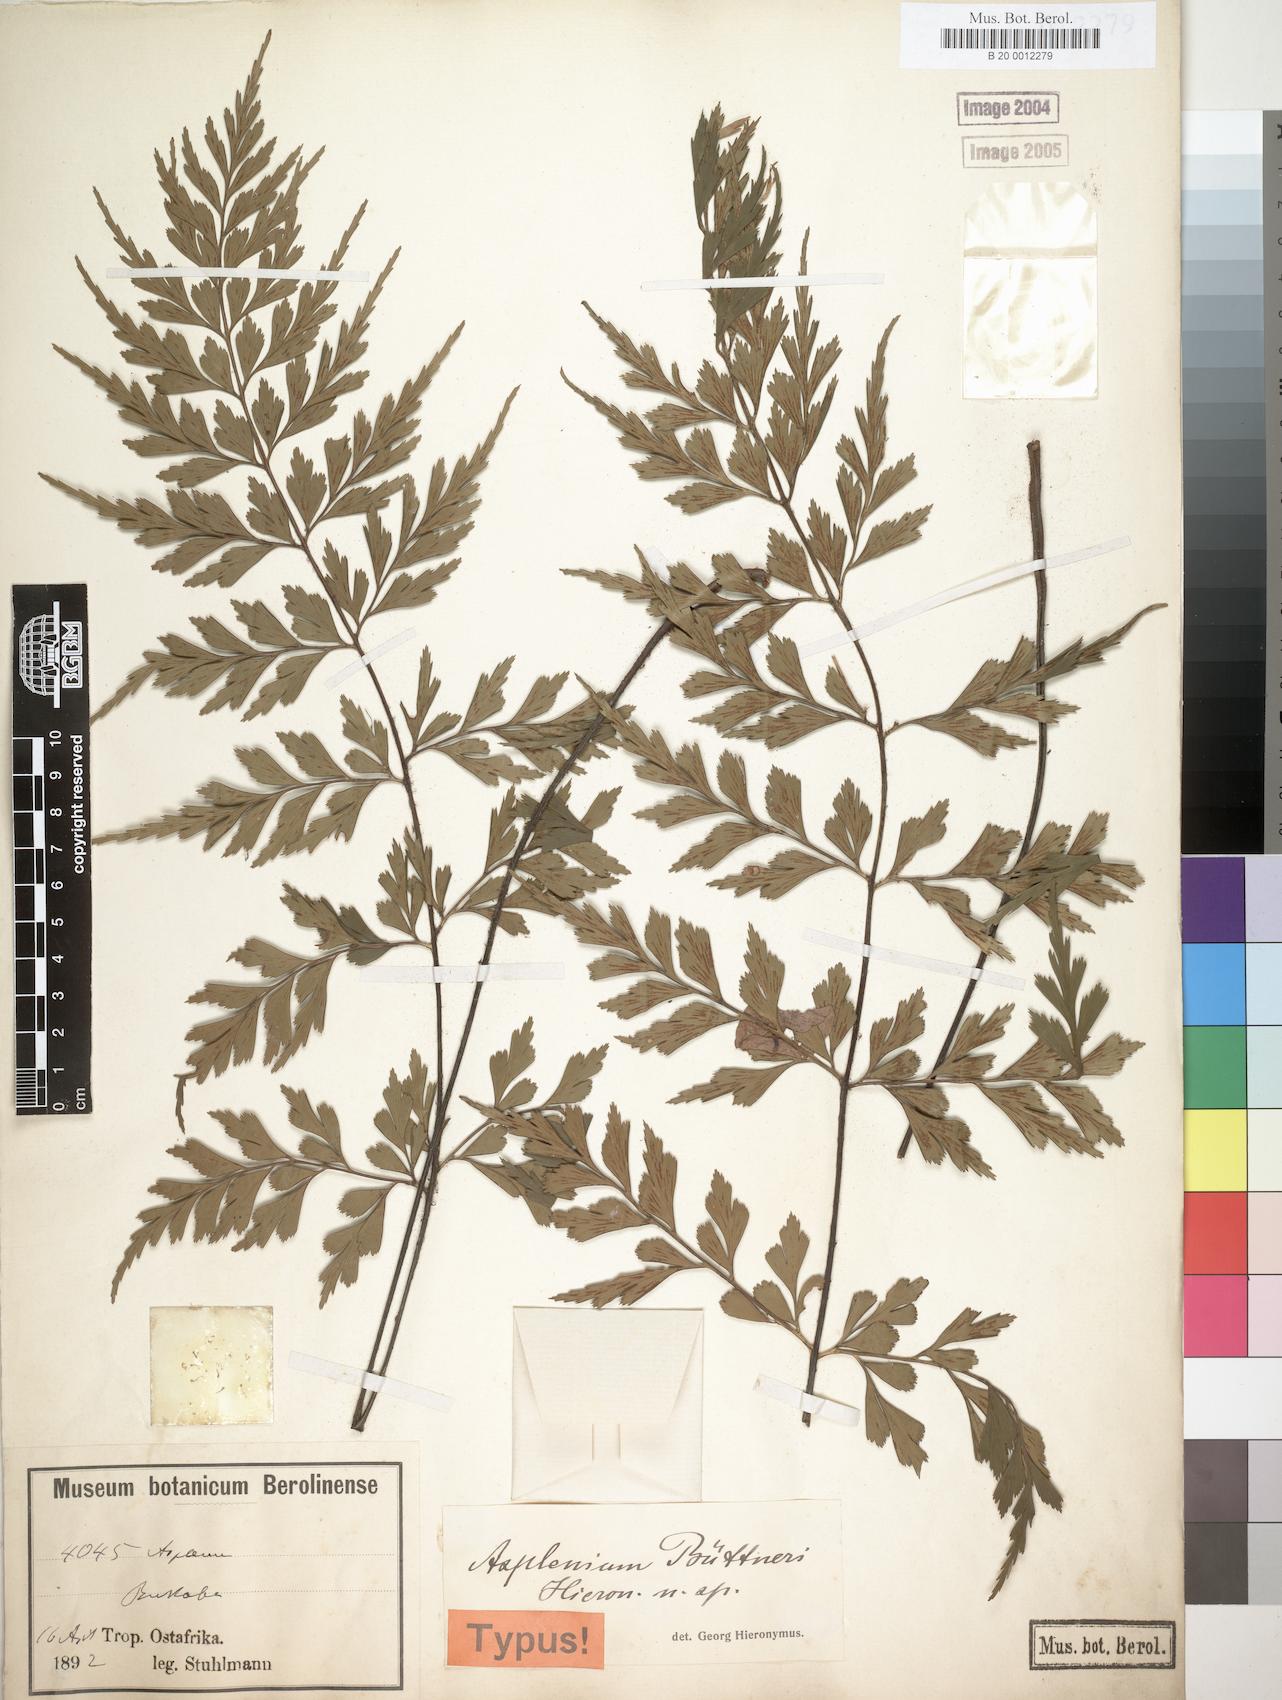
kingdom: Plantae
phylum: Tracheophyta
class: Polypodiopsida
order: Polypodiales
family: Aspleniaceae
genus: Asplenium
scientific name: Asplenium buettneri
